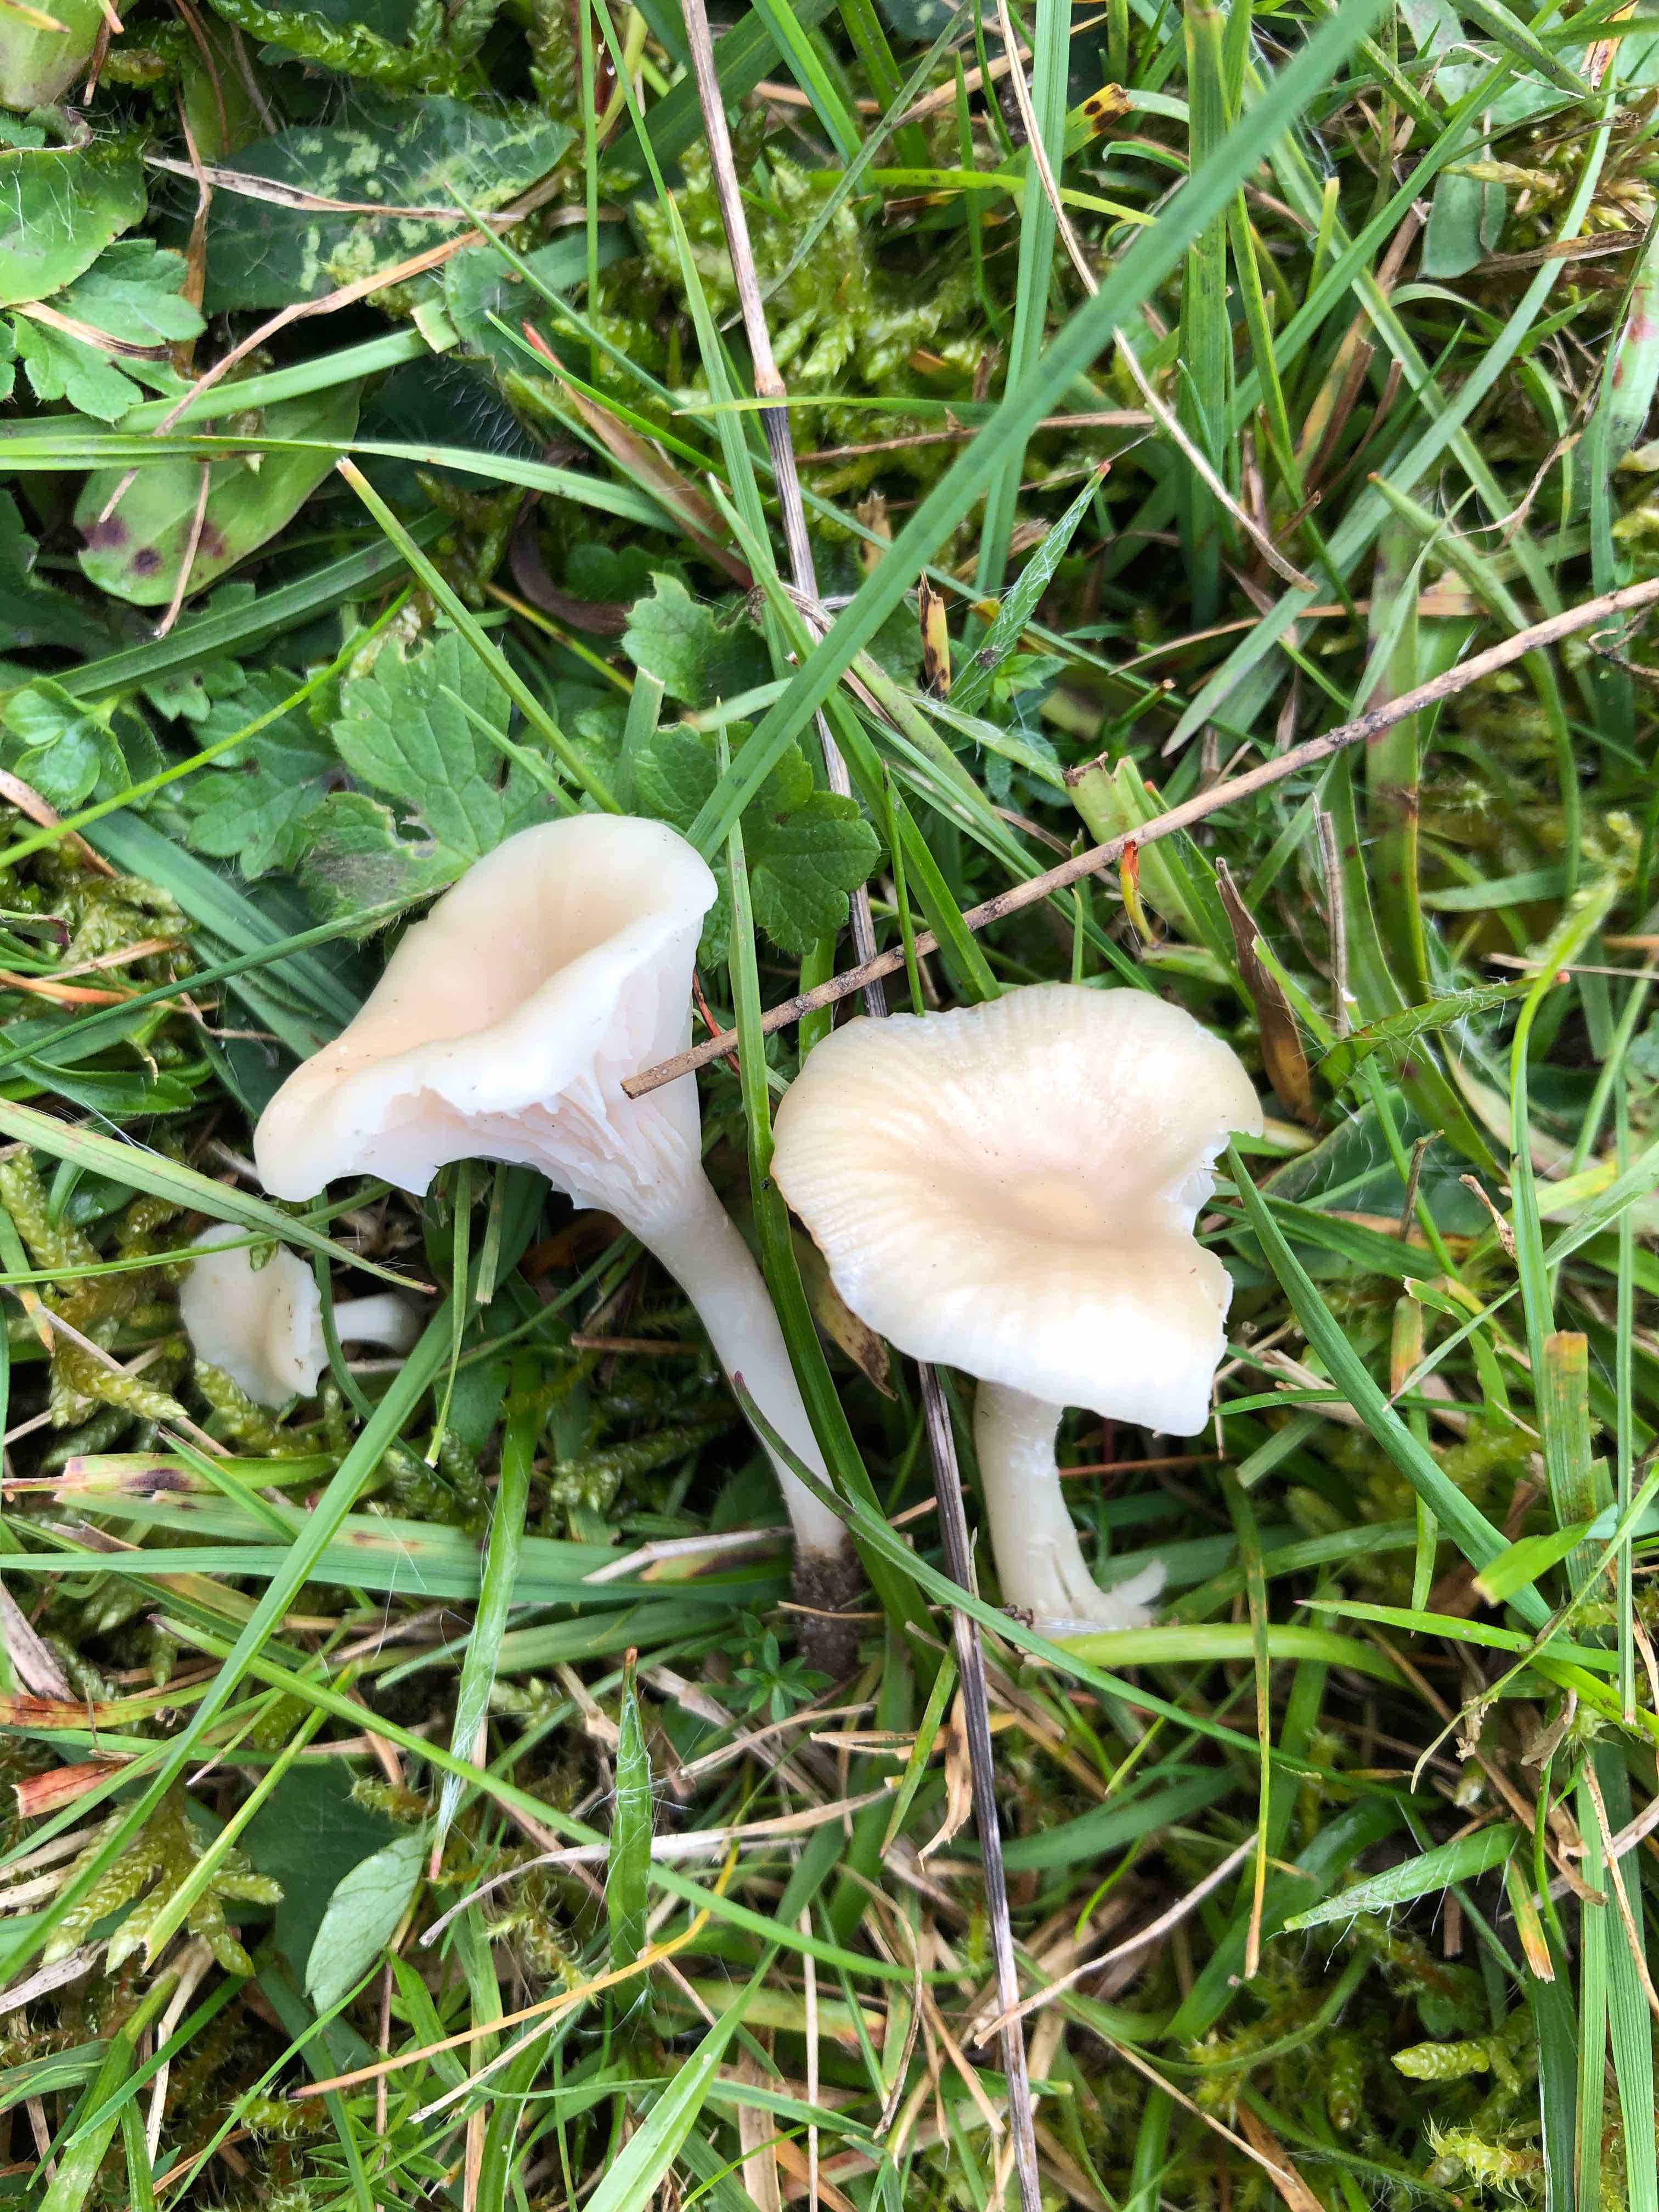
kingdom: Fungi
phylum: Basidiomycota
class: Agaricomycetes
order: Agaricales
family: Hygrophoraceae
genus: Cuphophyllus
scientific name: Cuphophyllus russocoriaceus
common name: ruslæder-vokshat
